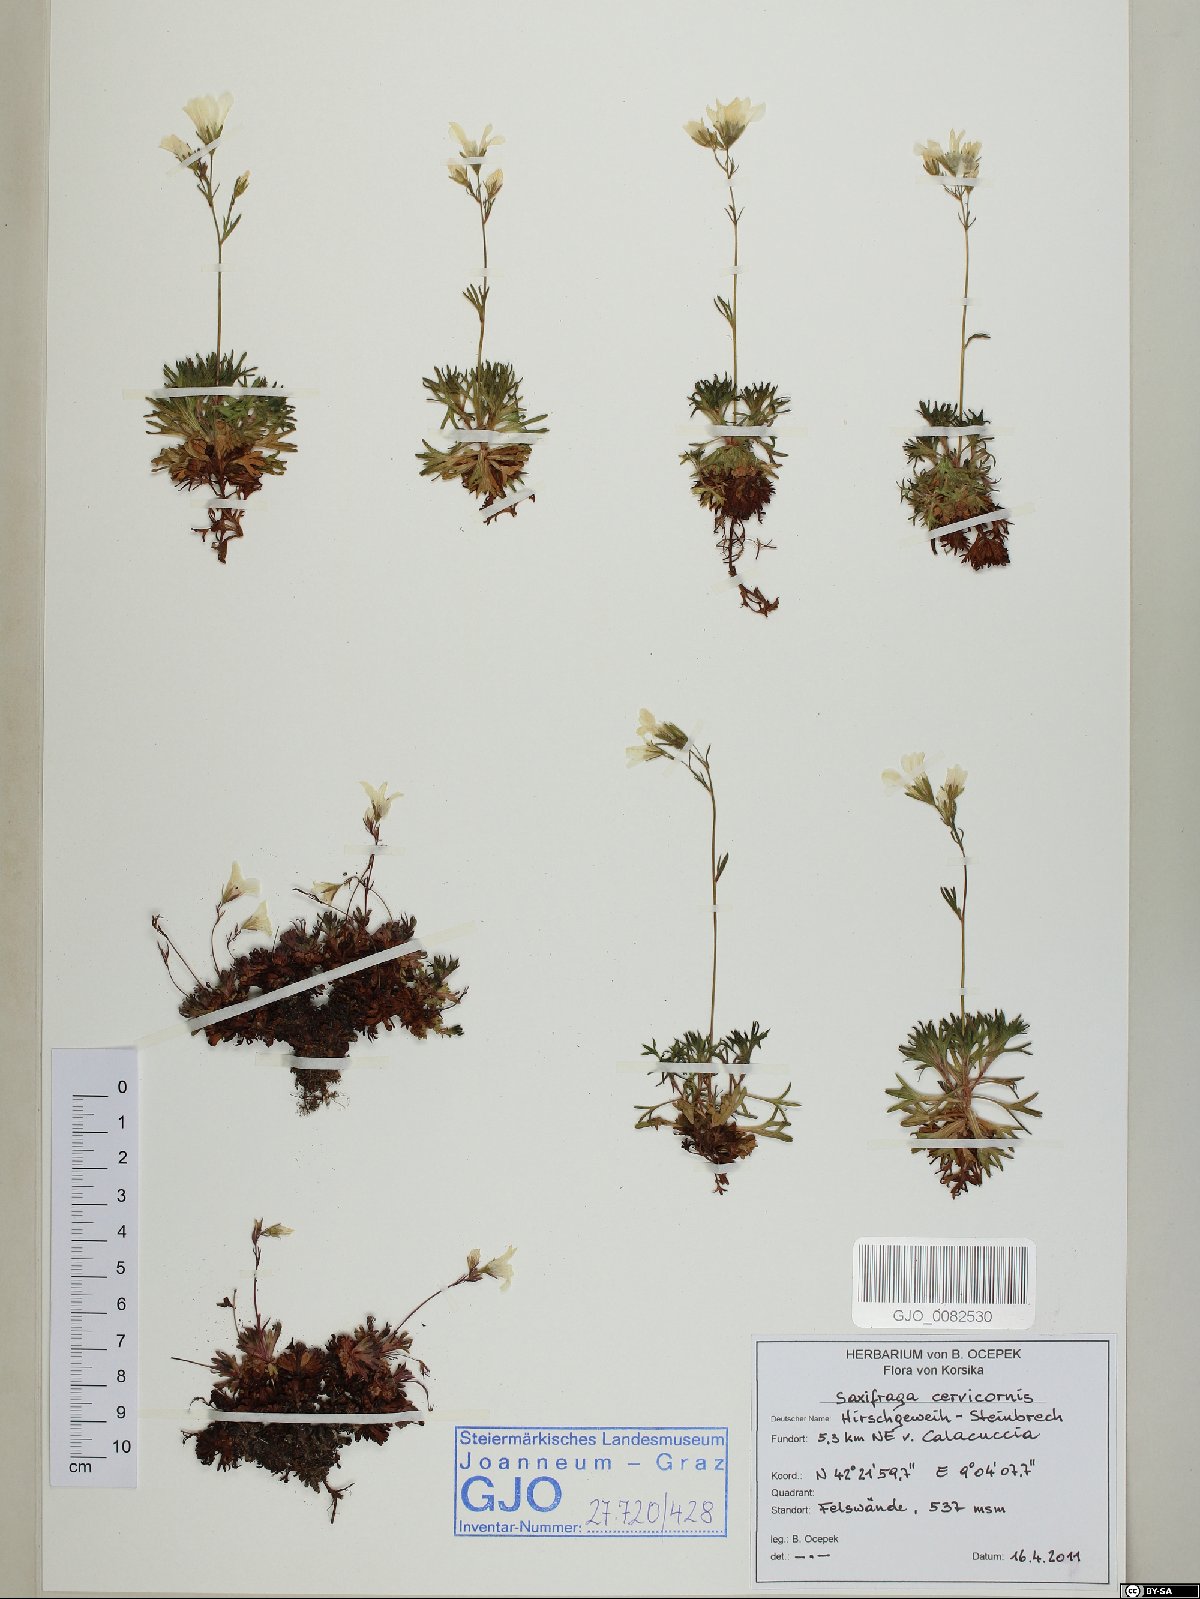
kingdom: Plantae
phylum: Tracheophyta
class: Magnoliopsida
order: Saxifragales
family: Saxifragaceae
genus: Saxifraga
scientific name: Saxifraga pedemontana
